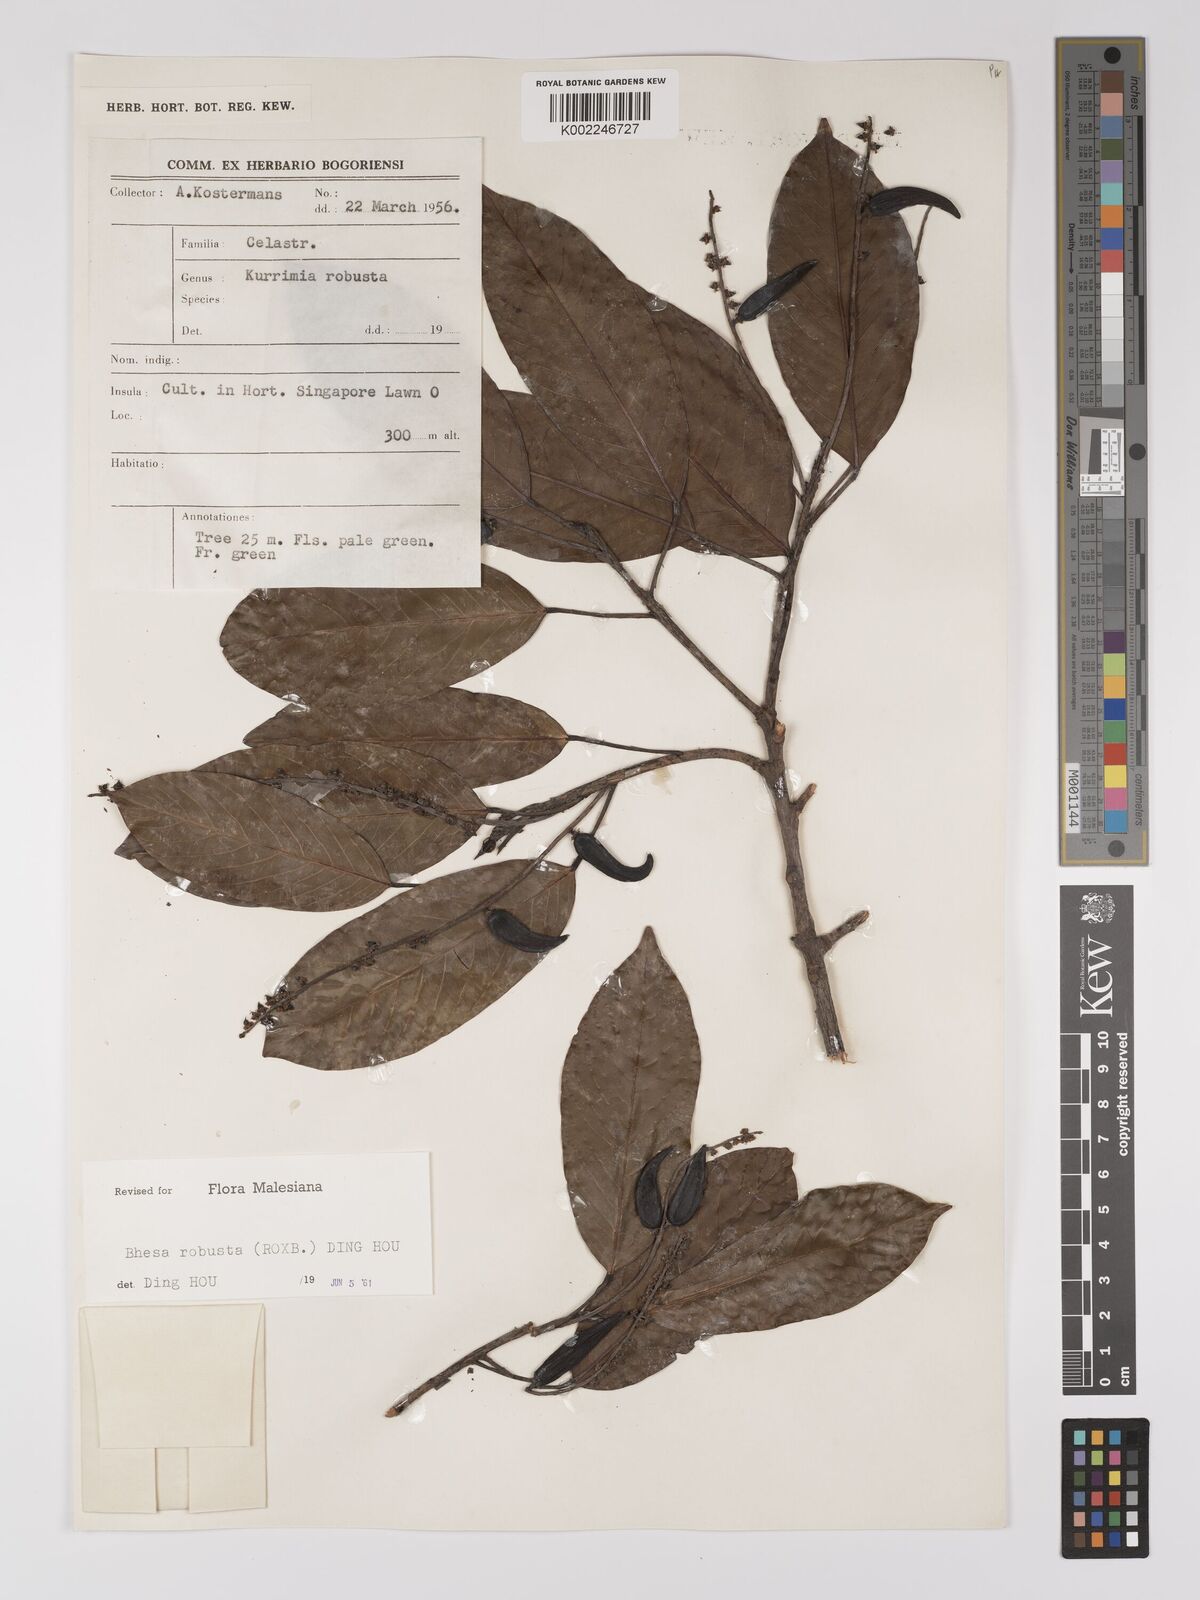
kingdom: Plantae
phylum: Tracheophyta
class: Magnoliopsida
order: Malpighiales
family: Centroplacaceae
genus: Bhesa
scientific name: Bhesa robusta
